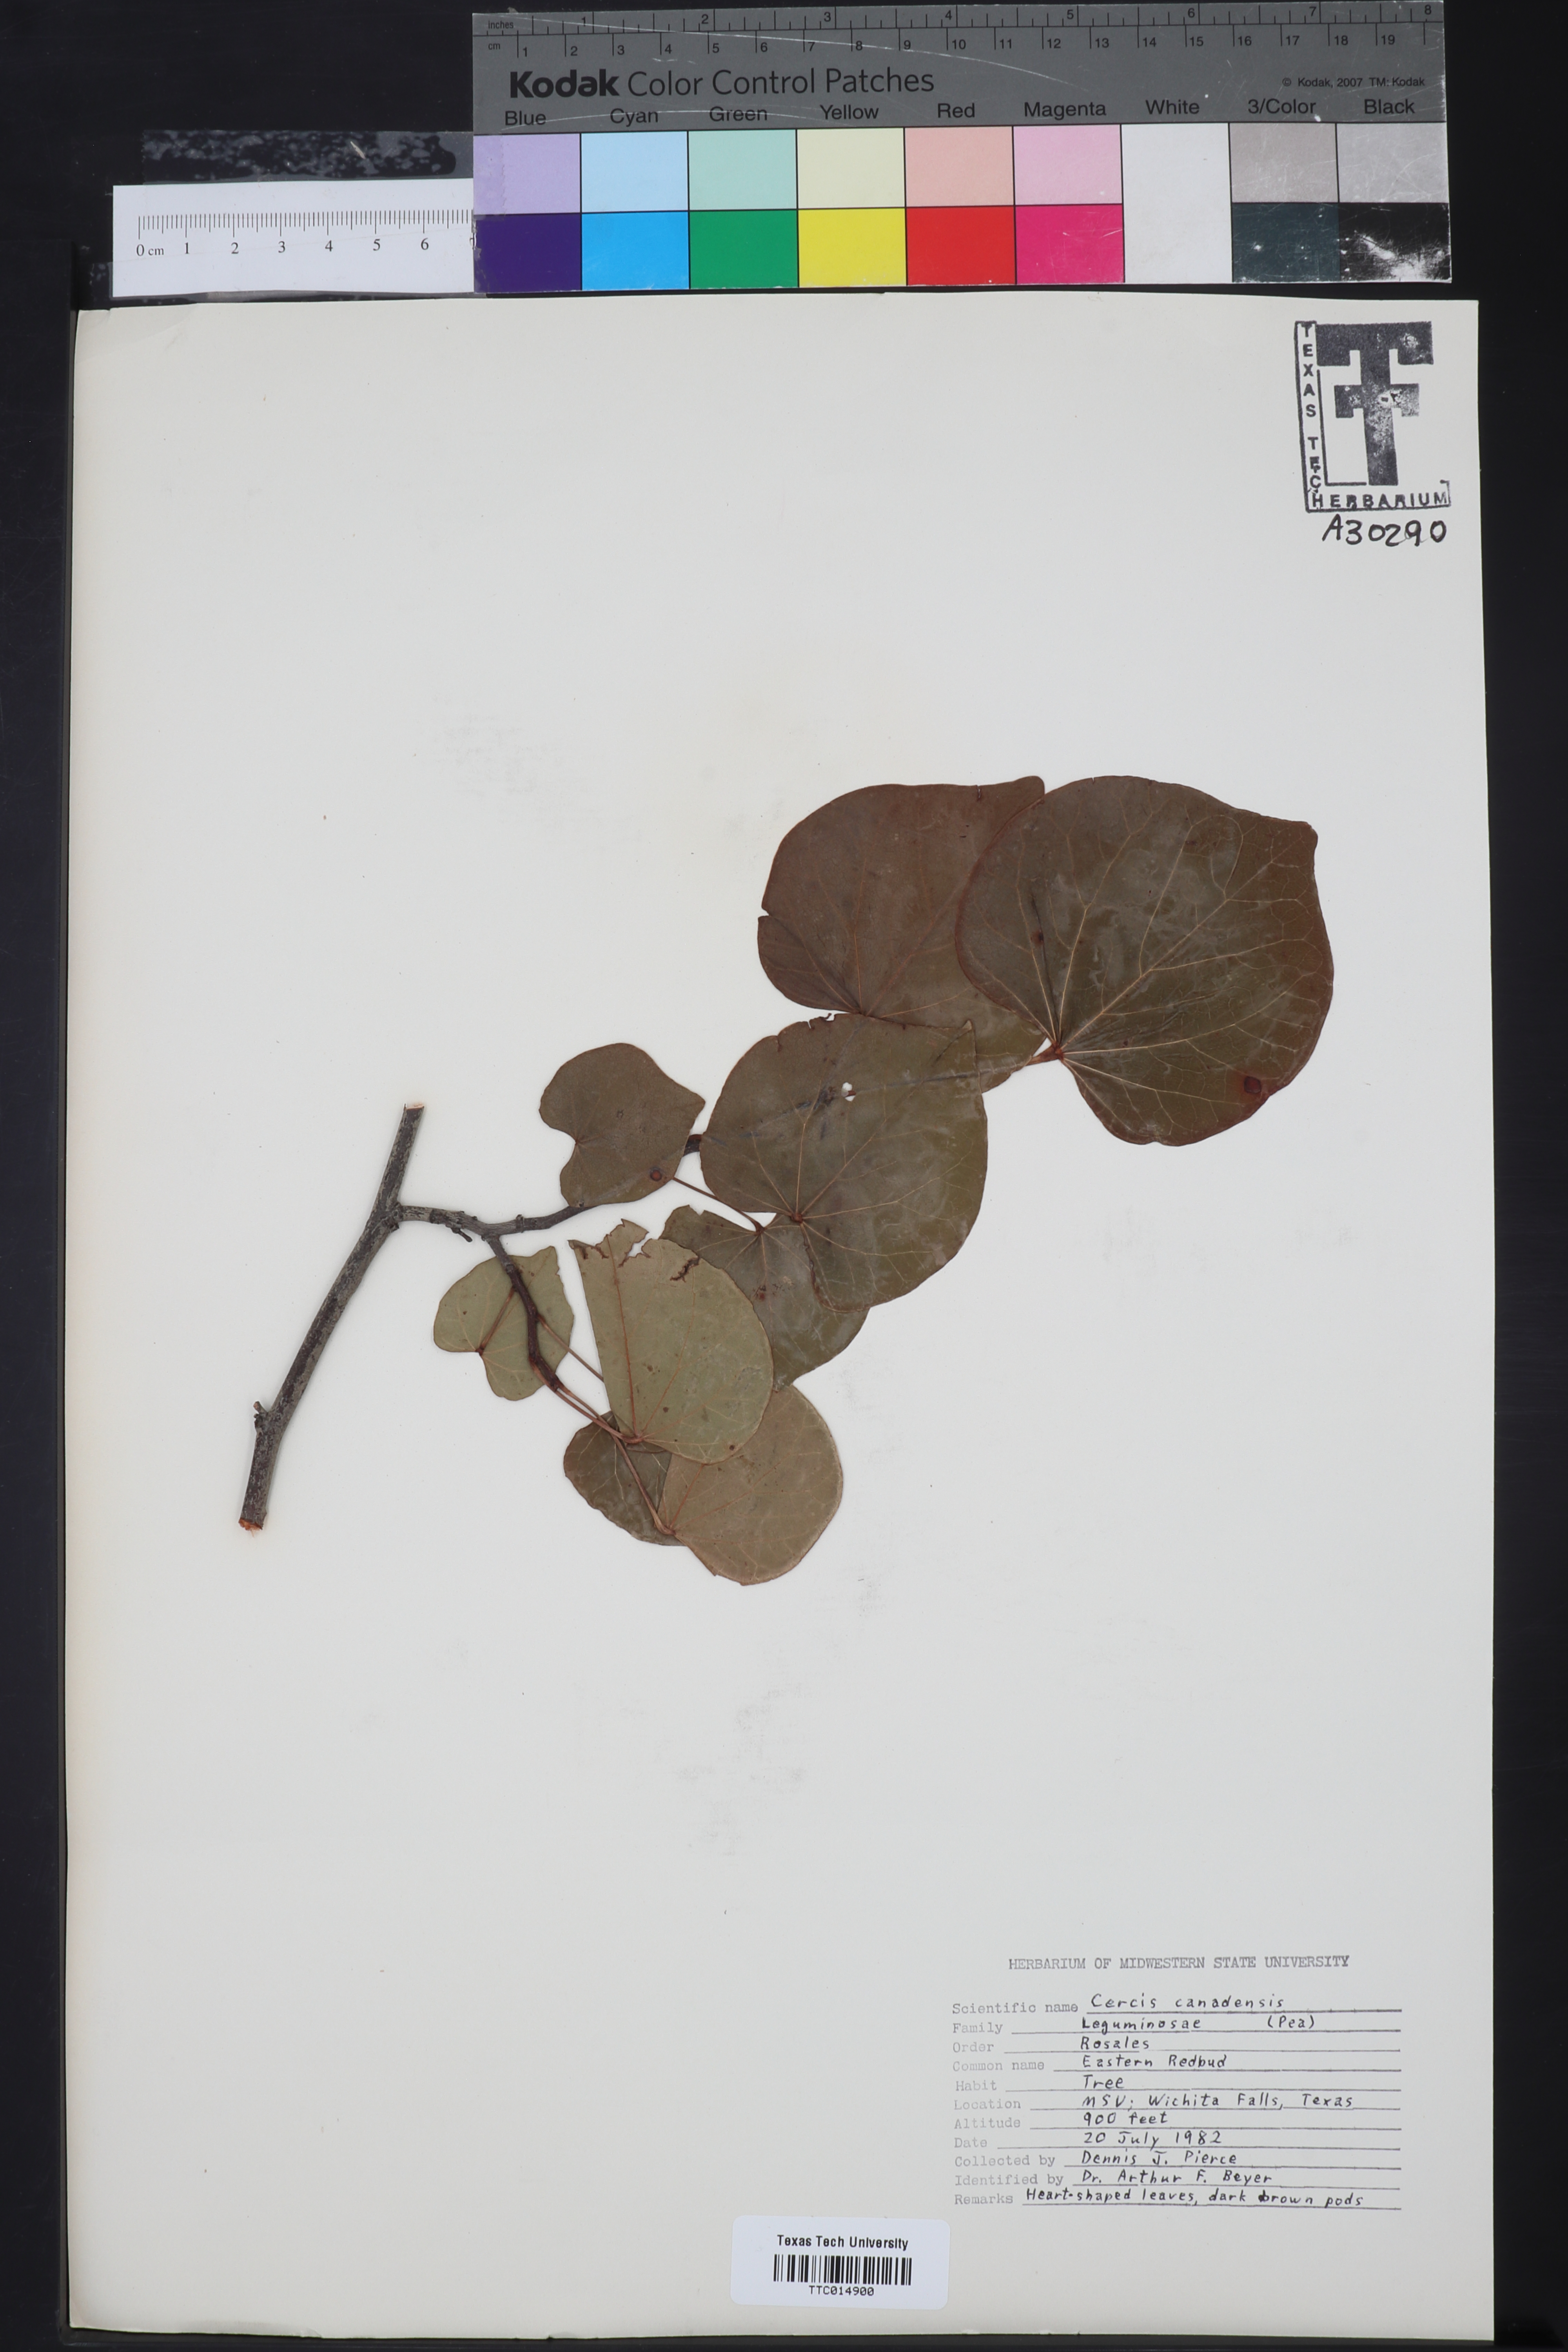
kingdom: Plantae
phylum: Tracheophyta
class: Magnoliopsida
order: Fabales
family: Fabaceae
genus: Cercis
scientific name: Cercis canadensis
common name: Eastern redbud
